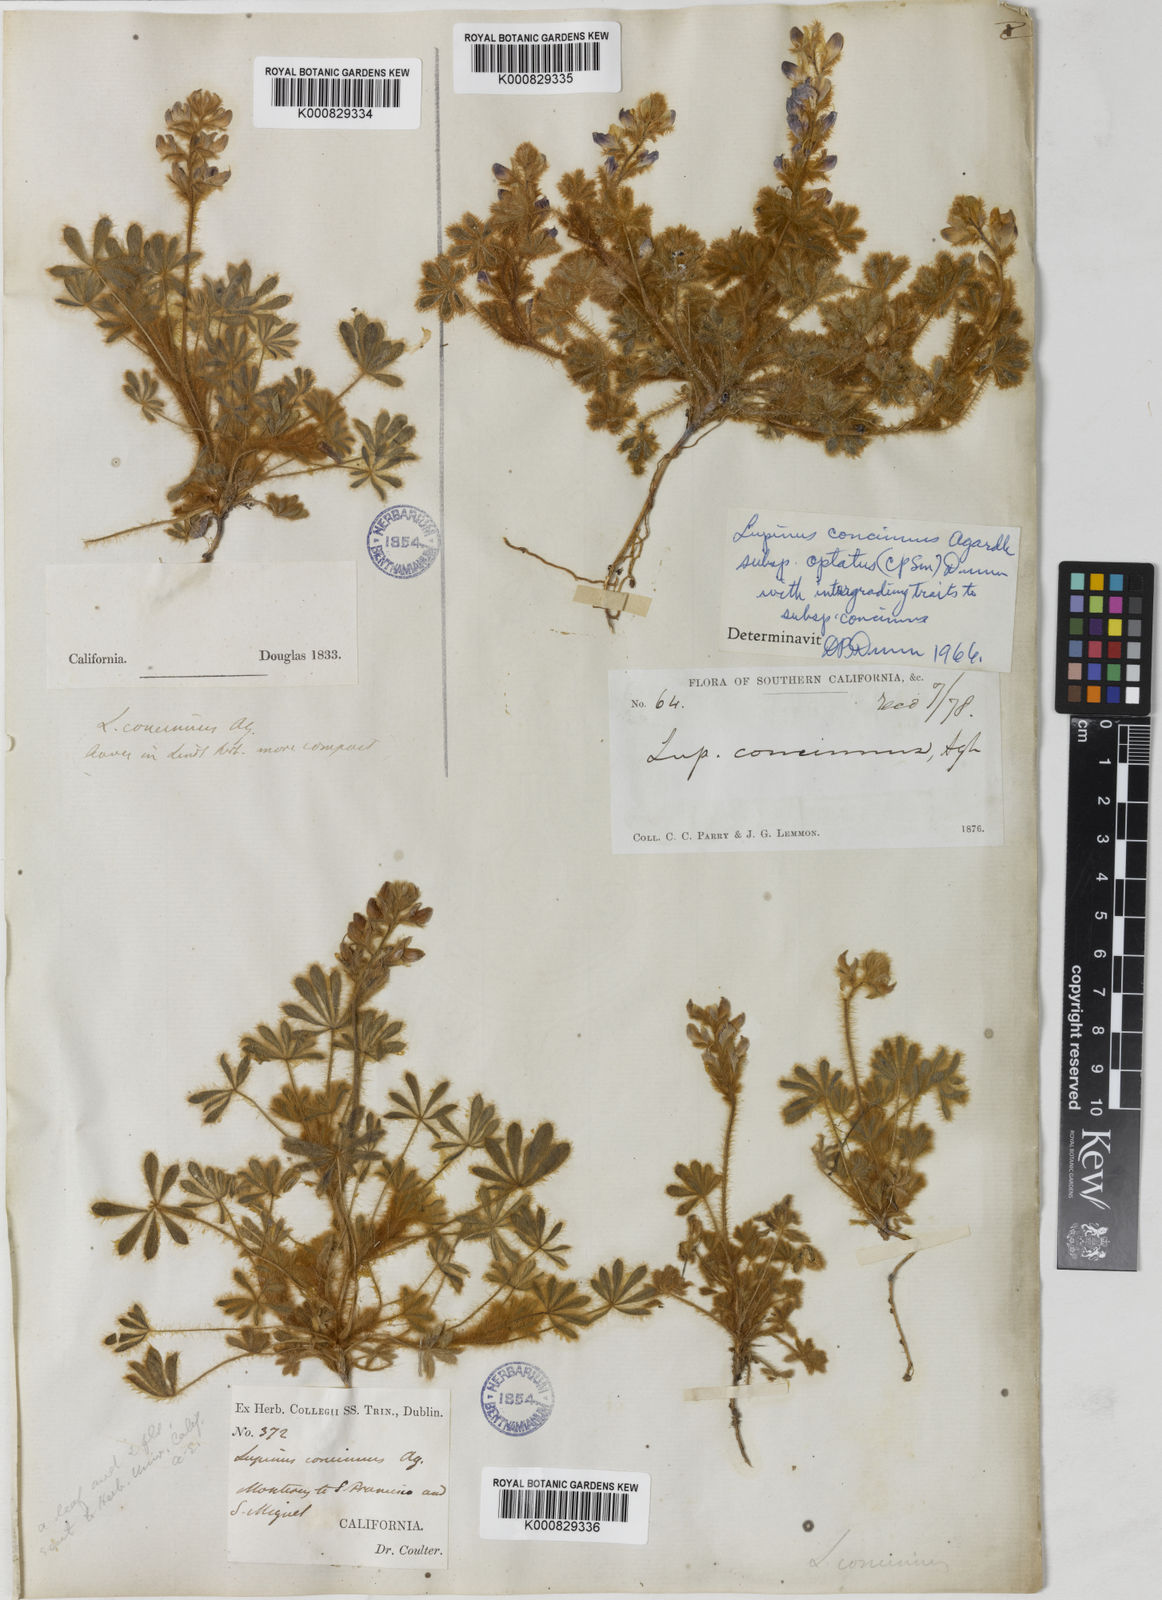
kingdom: Plantae
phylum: Tracheophyta
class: Magnoliopsida
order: Fabales
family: Fabaceae
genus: Lupinus
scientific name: Lupinus concinnus
